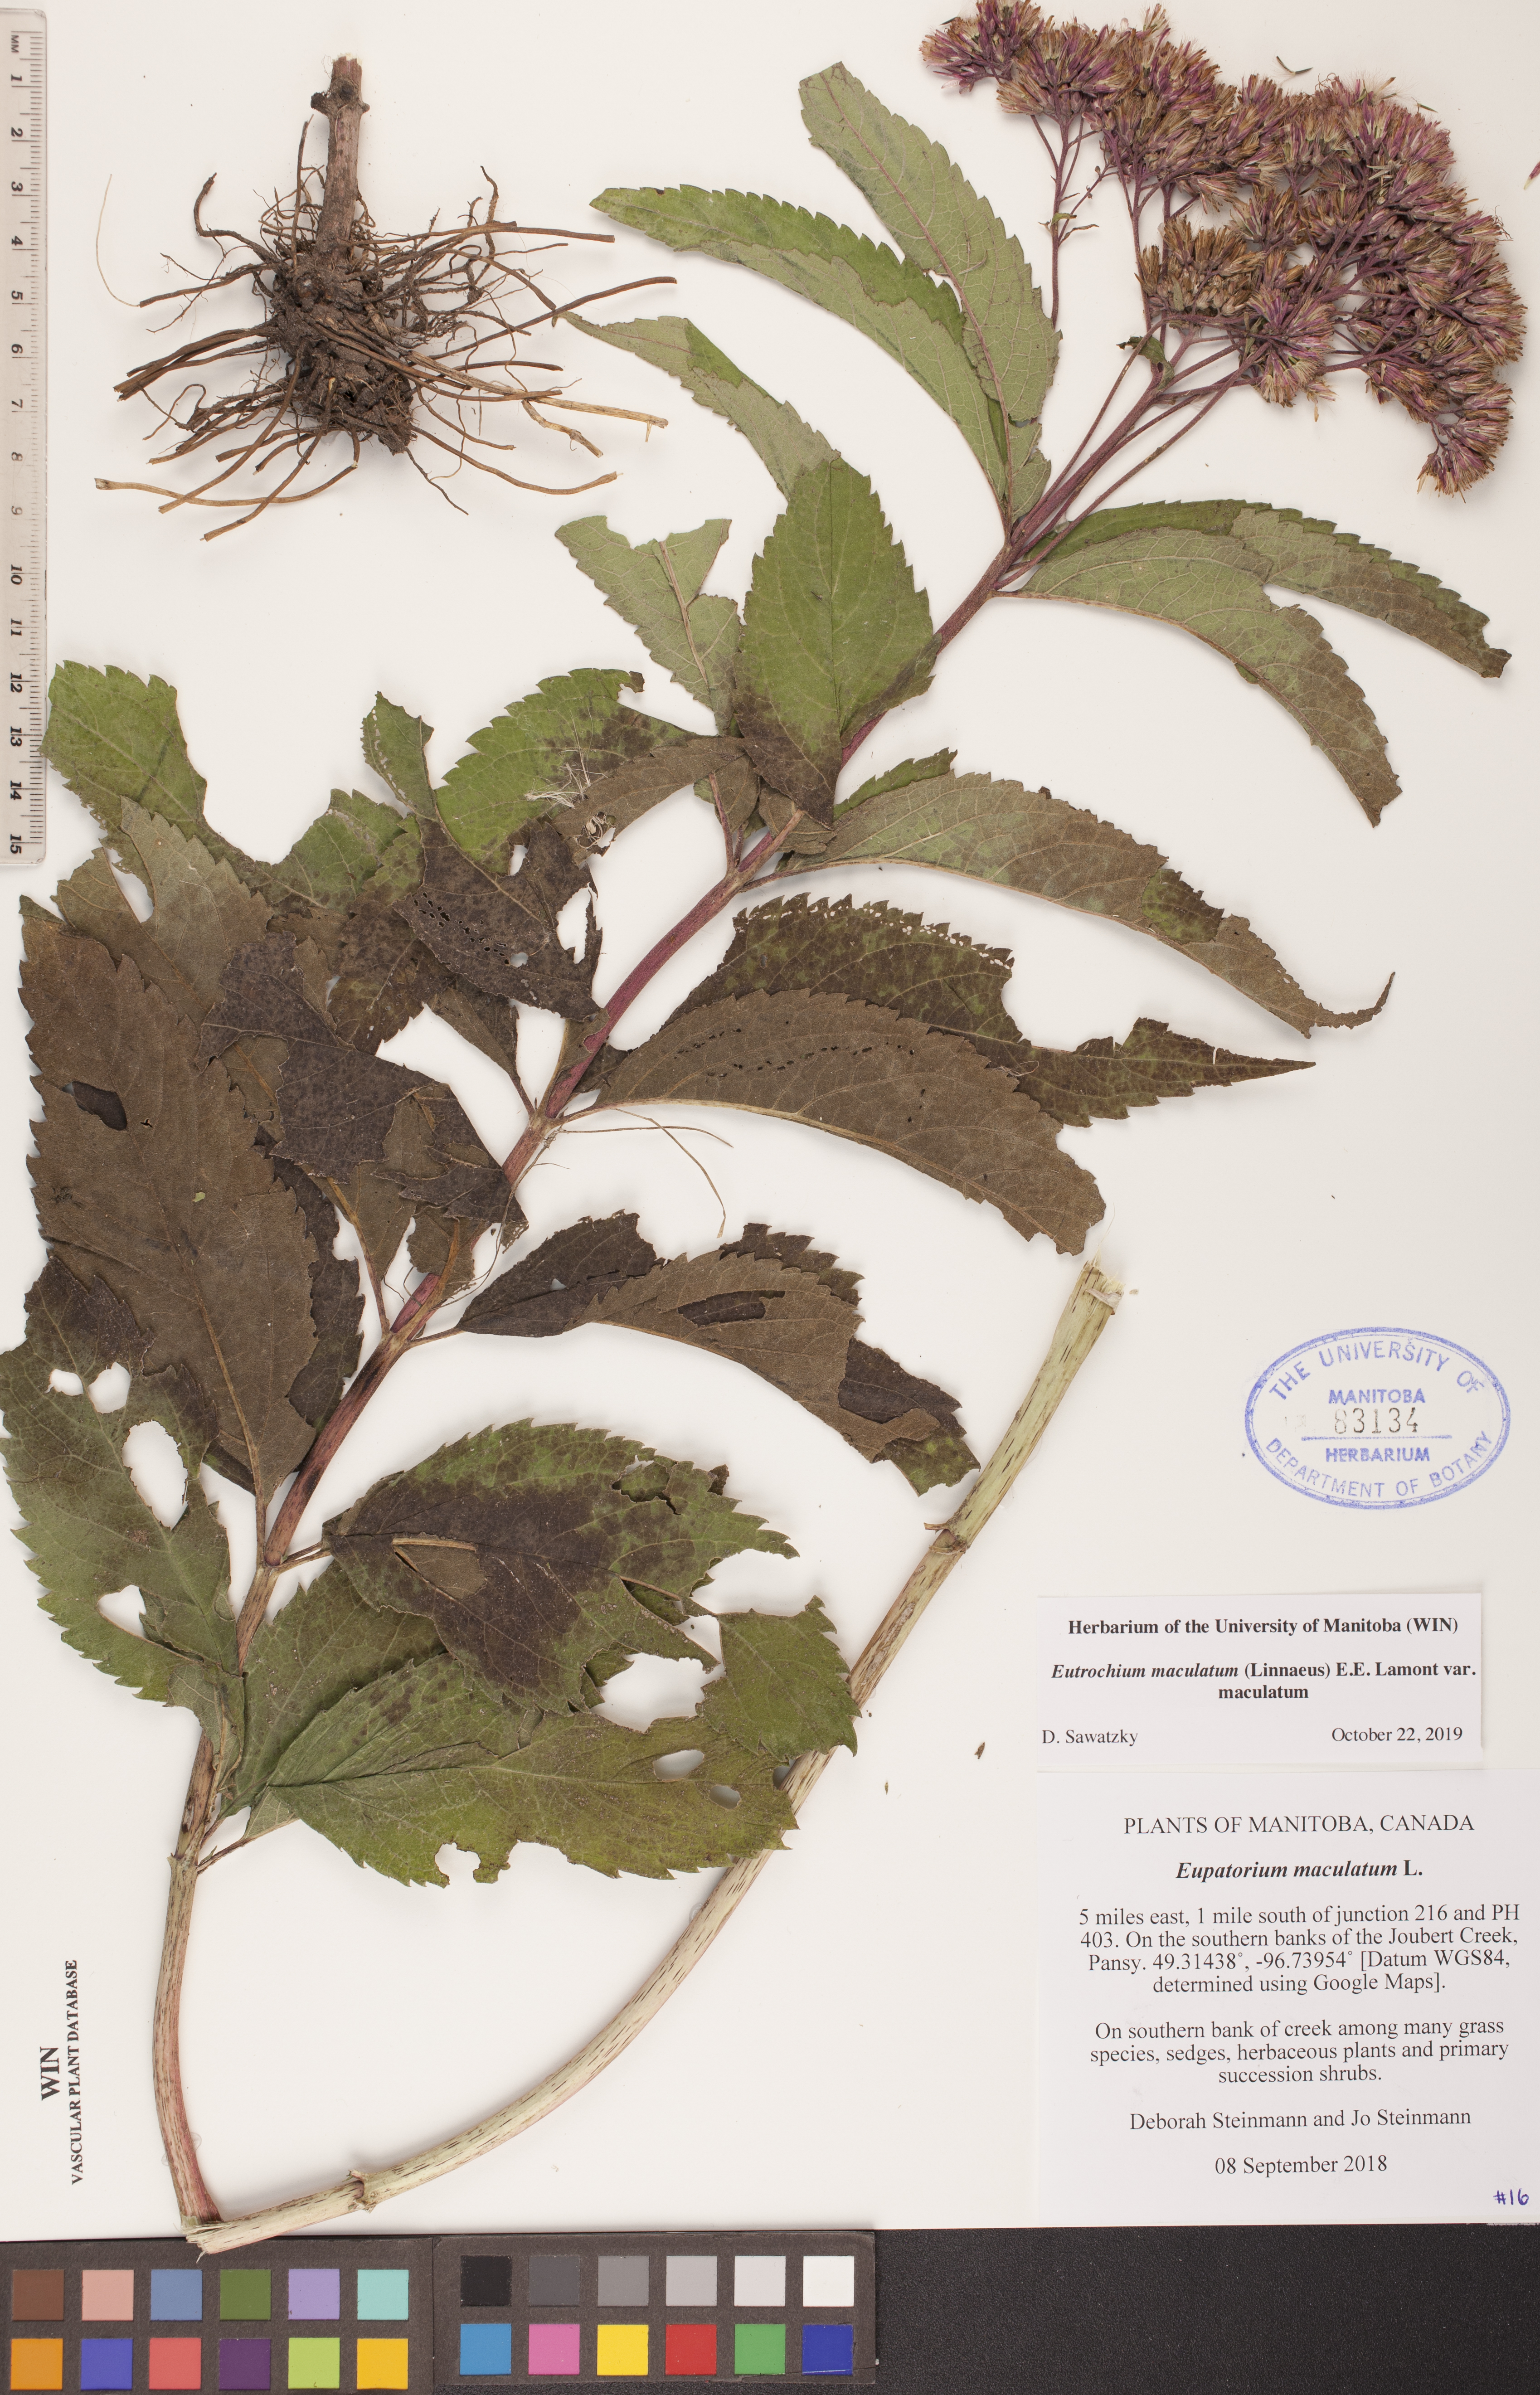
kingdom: Plantae
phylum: Tracheophyta
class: Magnoliopsida
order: Asterales
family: Asteraceae
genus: Eutrochium
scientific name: Eutrochium maculatum
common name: Spotted joe pye weed
